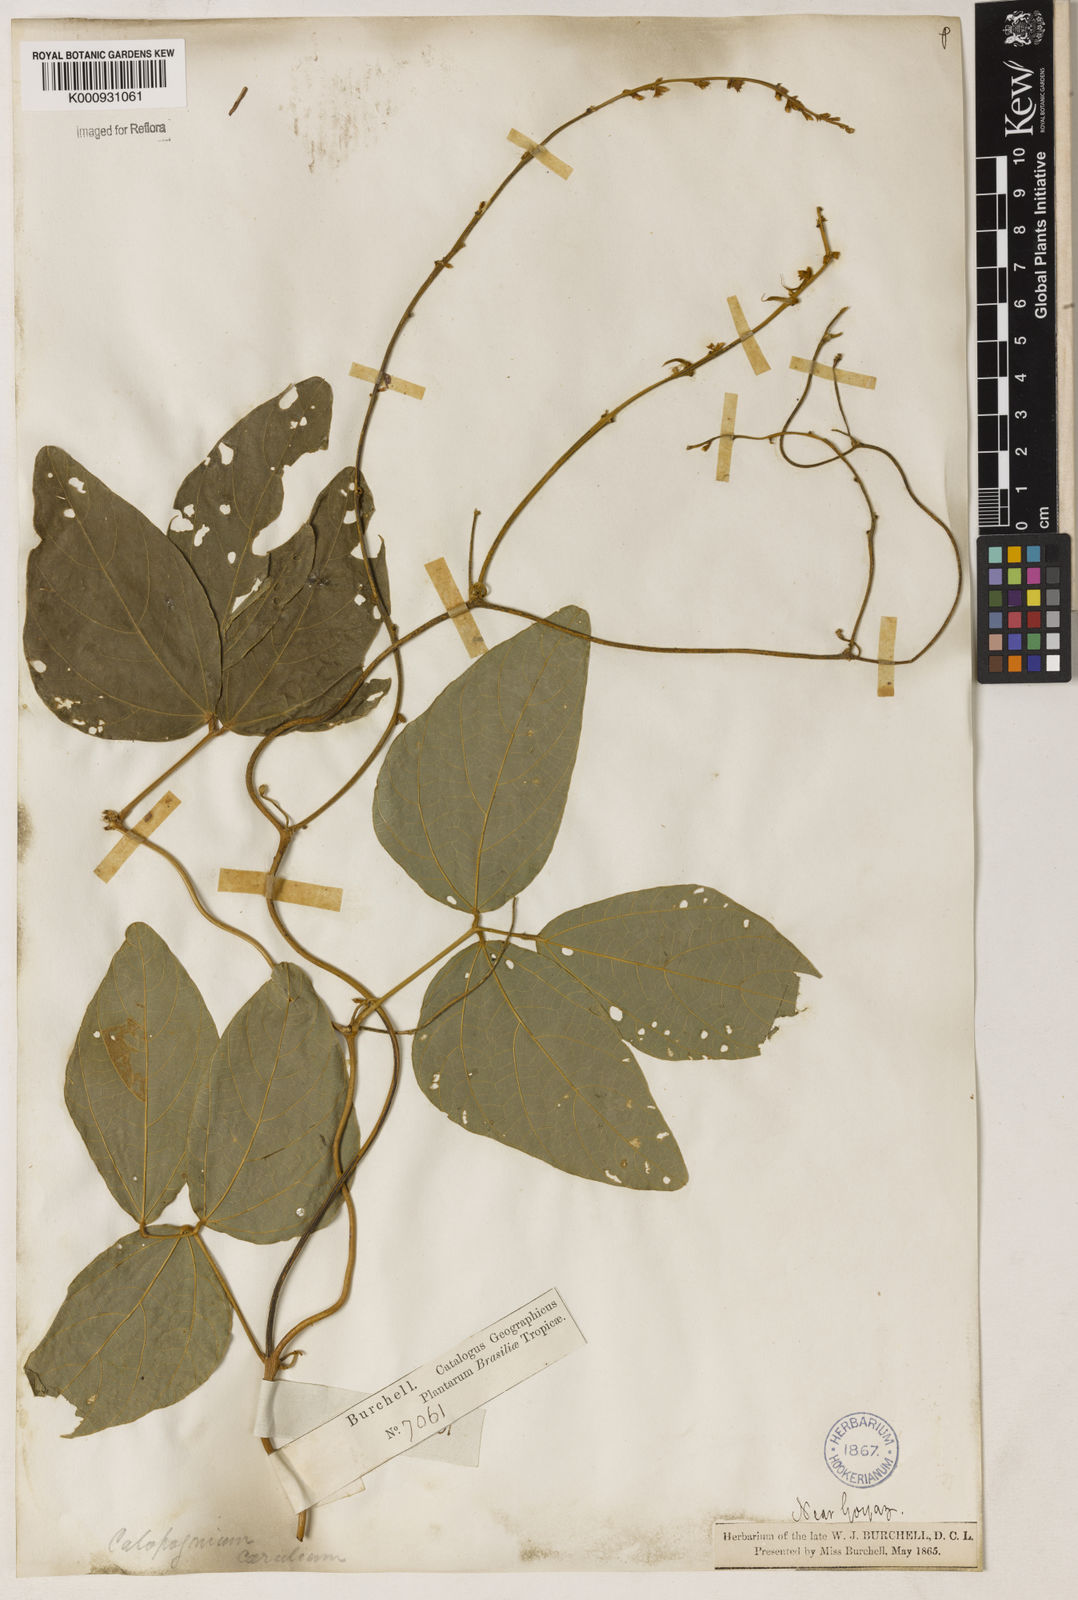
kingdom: Plantae
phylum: Tracheophyta
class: Magnoliopsida
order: Fabales
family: Fabaceae
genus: Calopogonium
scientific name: Calopogonium caeruleum
